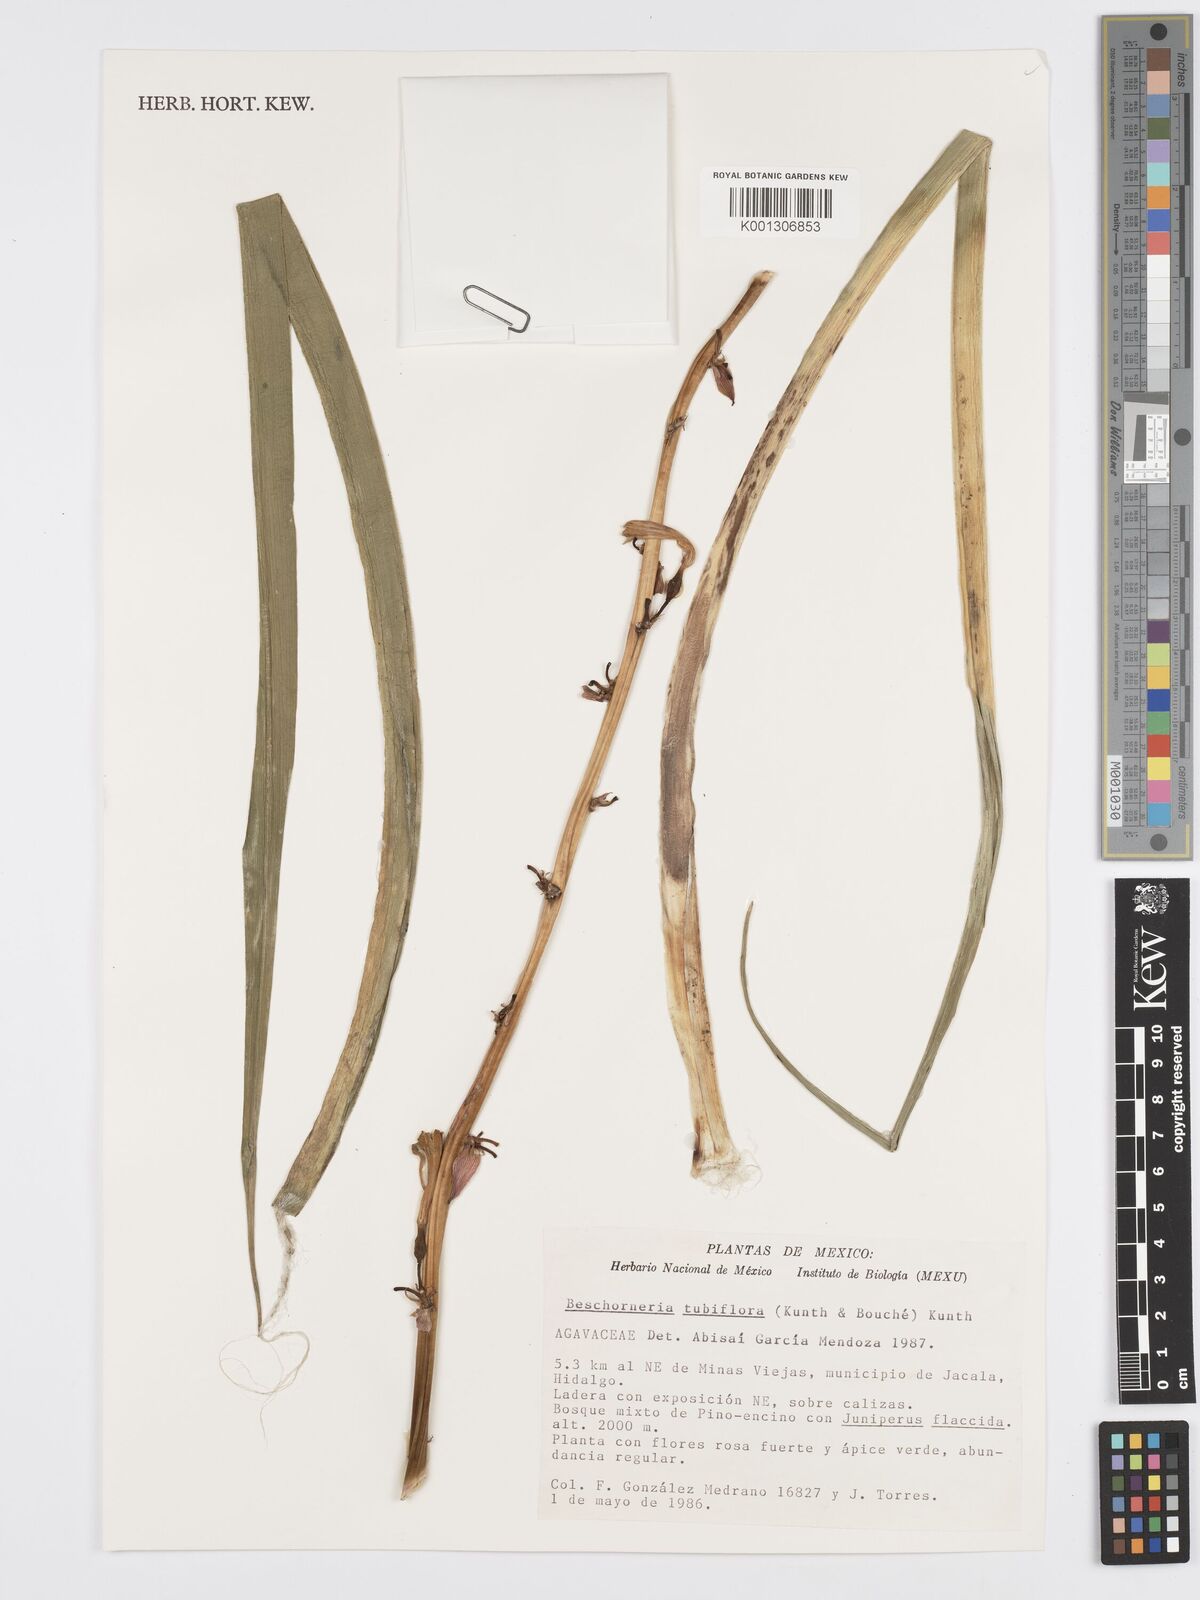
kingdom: Plantae
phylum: Tracheophyta
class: Liliopsida
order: Asparagales
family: Asparagaceae
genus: Beschorneria
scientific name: Beschorneria tubiflora
